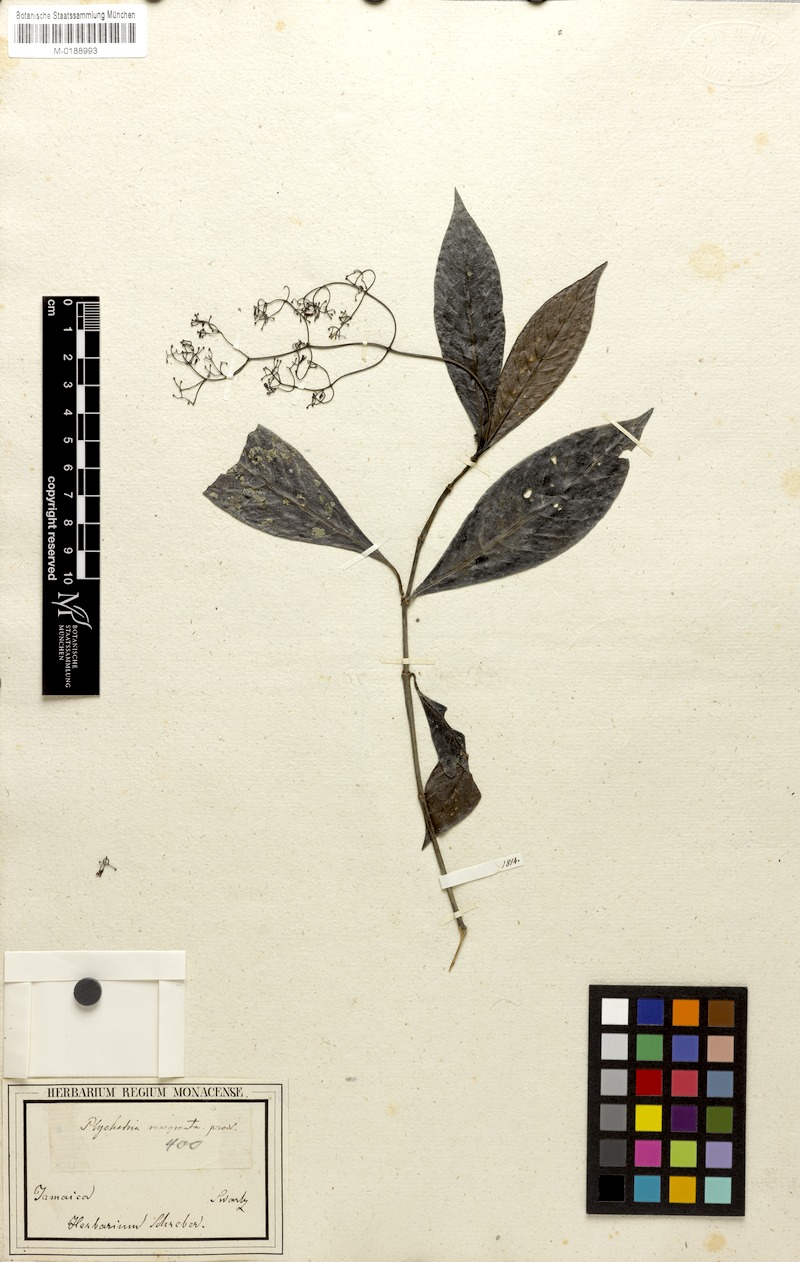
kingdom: Plantae
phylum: Tracheophyta
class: Magnoliopsida
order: Gentianales
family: Rubiaceae
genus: Psychotria
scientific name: Psychotria marginata
